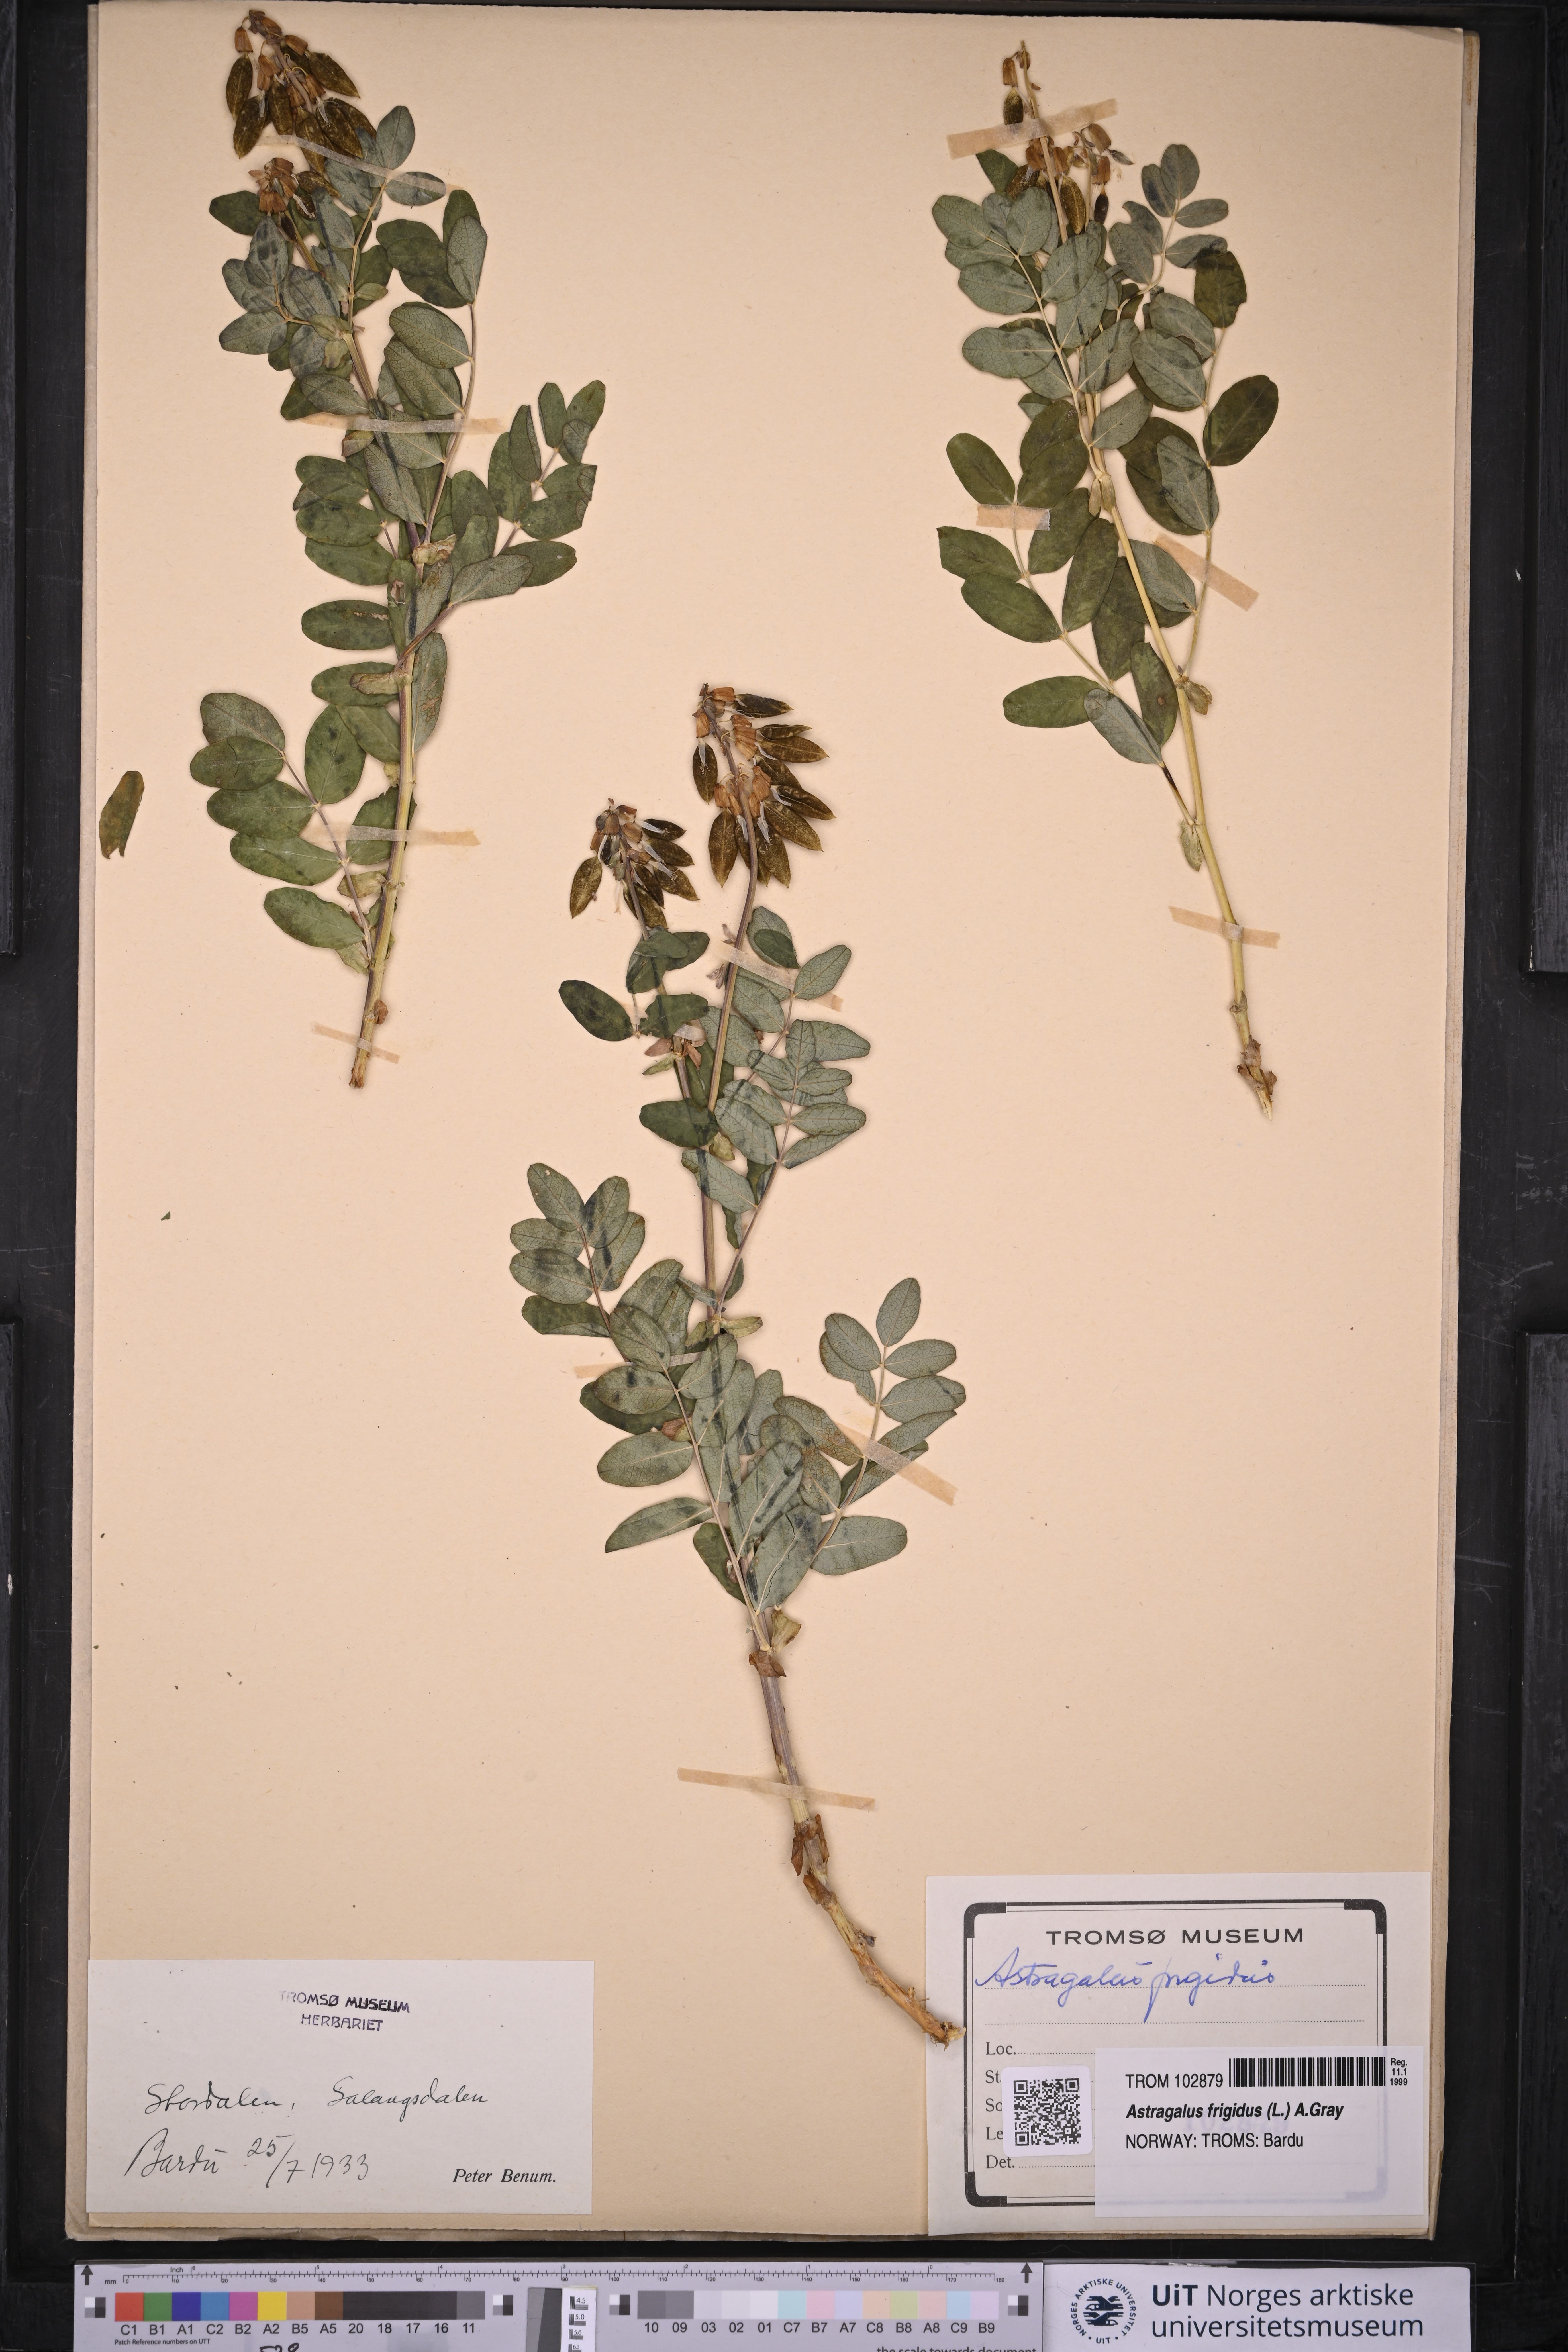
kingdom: Plantae
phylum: Tracheophyta
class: Magnoliopsida
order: Fabales
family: Fabaceae
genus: Astragalus
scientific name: Astragalus frigidus
